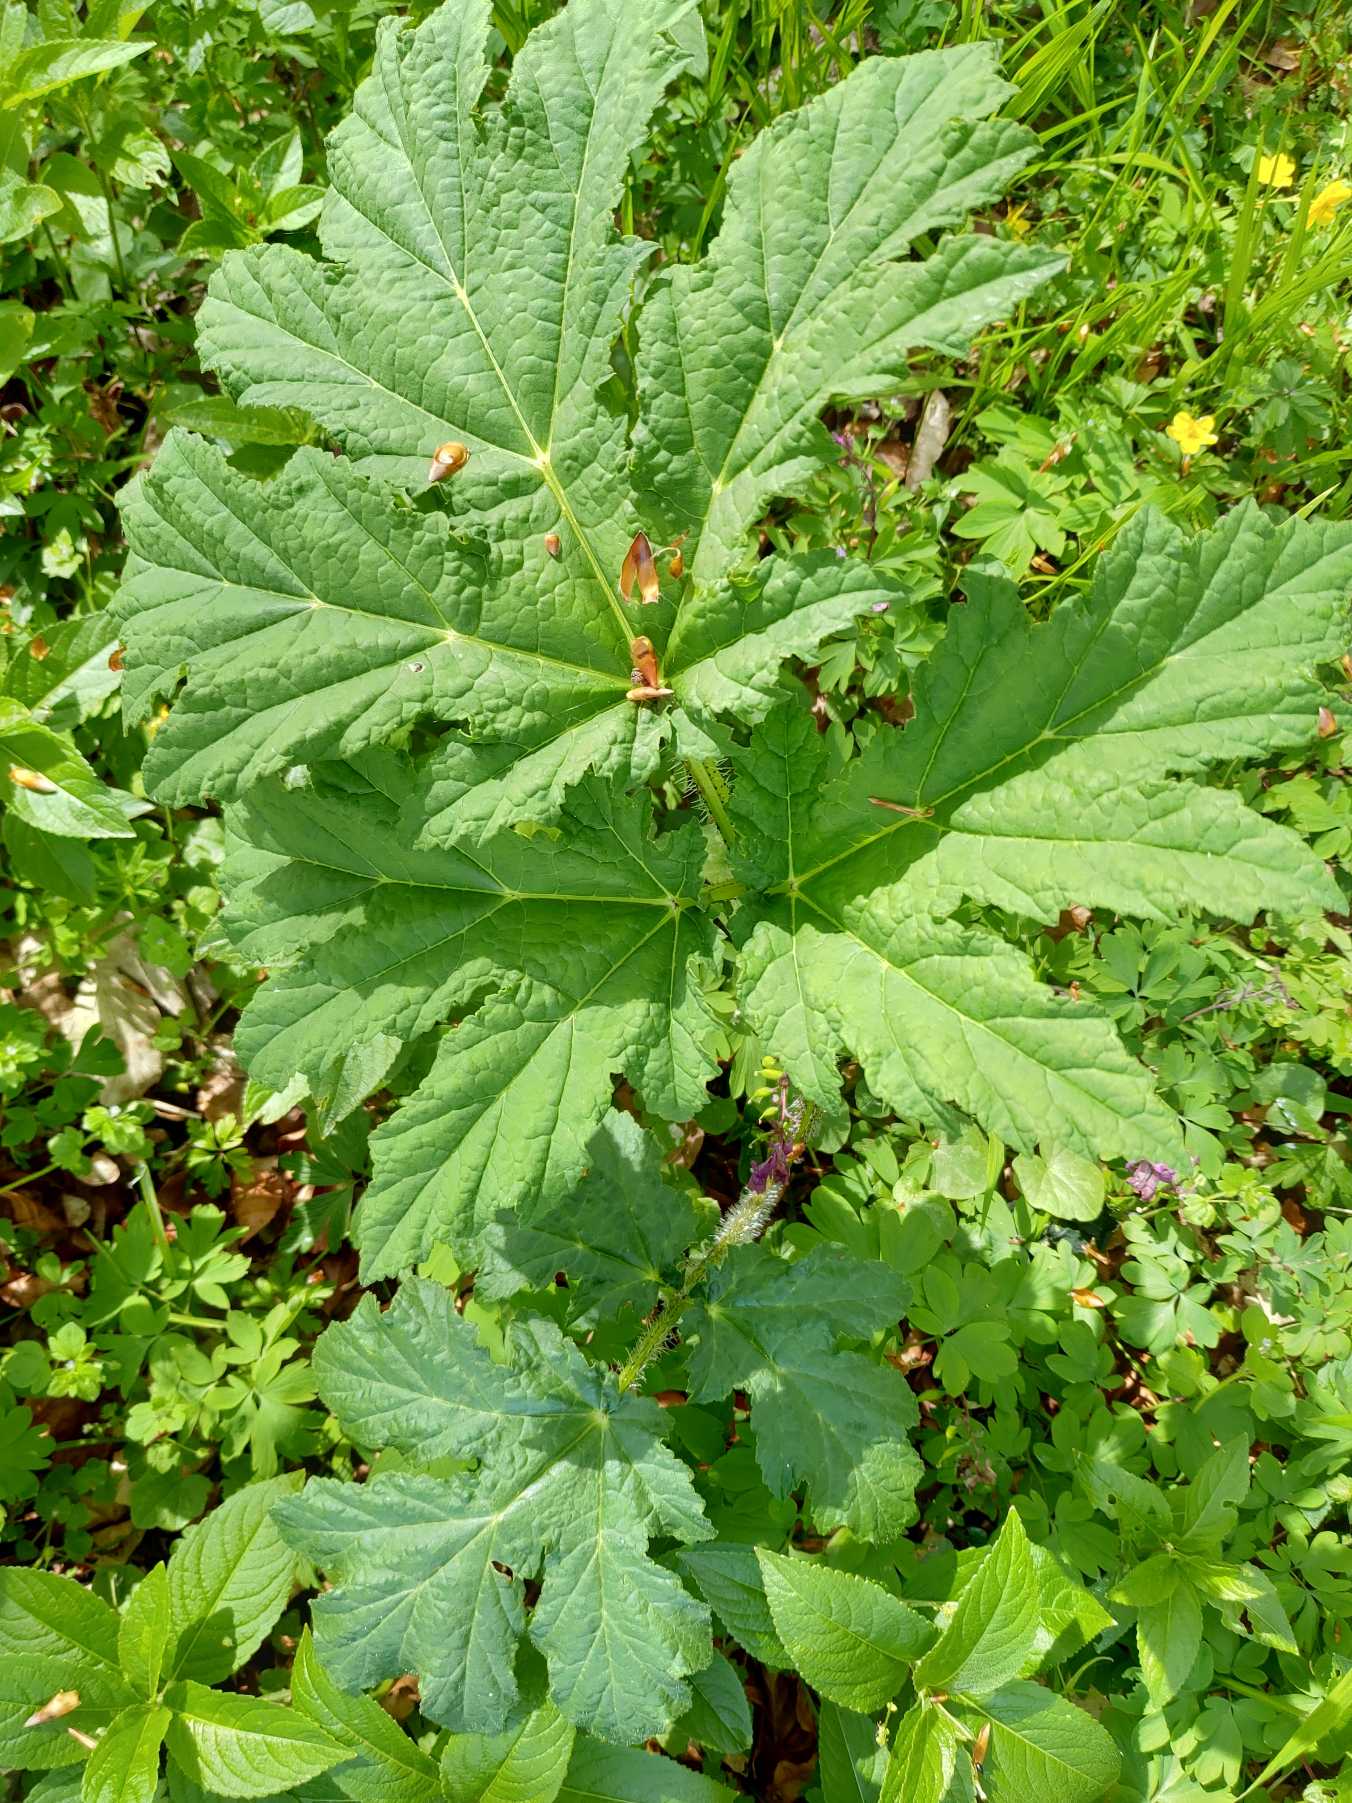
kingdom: Plantae
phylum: Tracheophyta
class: Magnoliopsida
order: Apiales
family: Apiaceae
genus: Heracleum
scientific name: Heracleum mantegazzianum
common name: Kæmpe-bjørneklo
